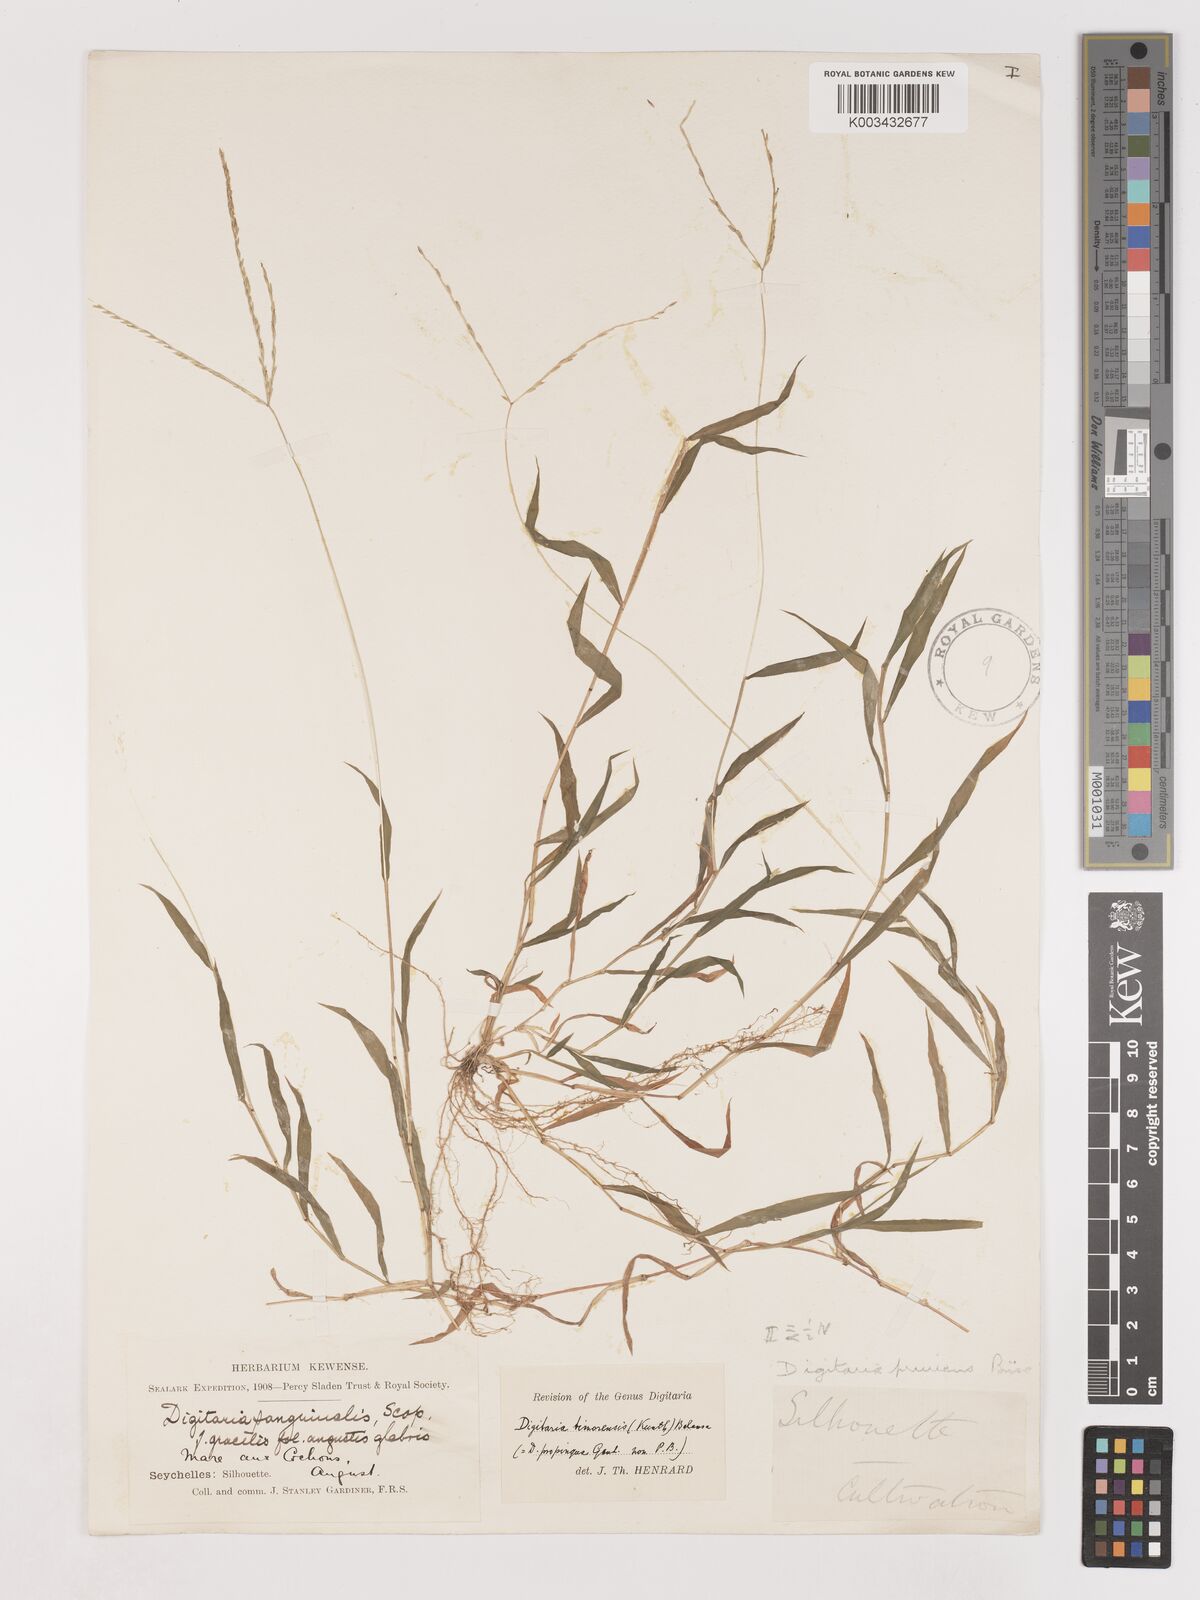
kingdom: Plantae
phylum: Tracheophyta
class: Liliopsida
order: Poales
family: Poaceae
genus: Digitaria
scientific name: Digitaria radicosa
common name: Trailing crabgrass
